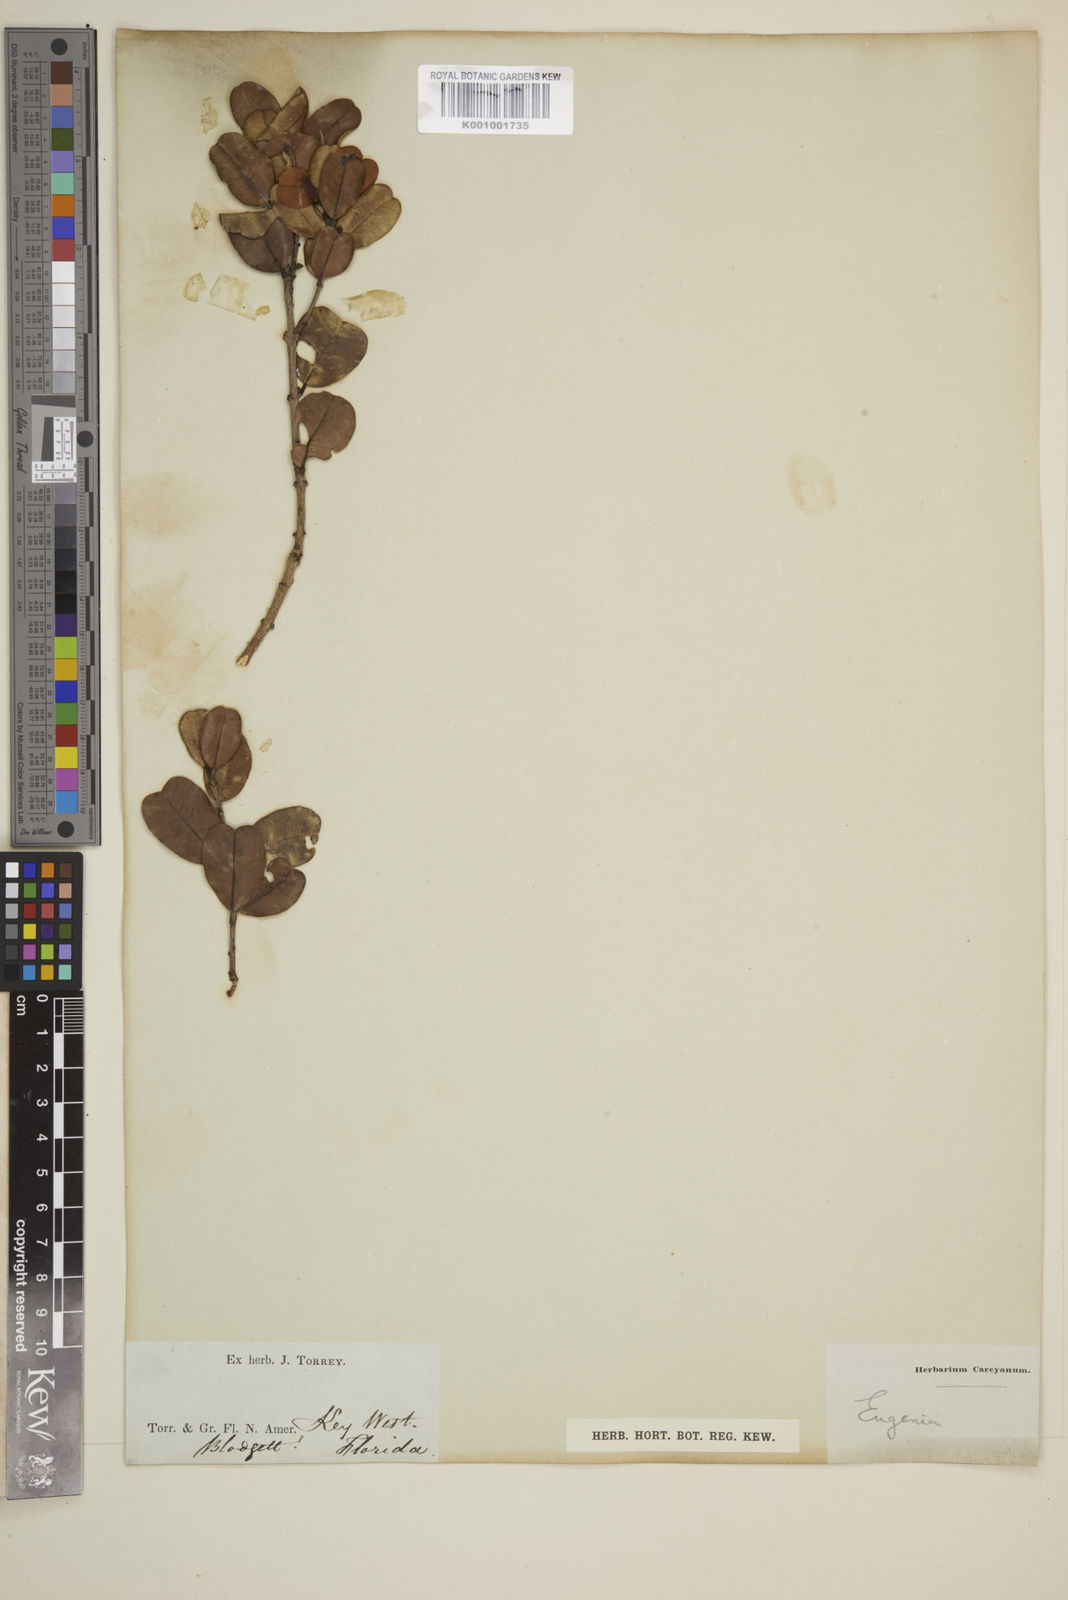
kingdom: Plantae
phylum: Tracheophyta
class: Magnoliopsida
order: Myrtales
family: Myrtaceae
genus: Eugenia
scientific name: Eugenia
